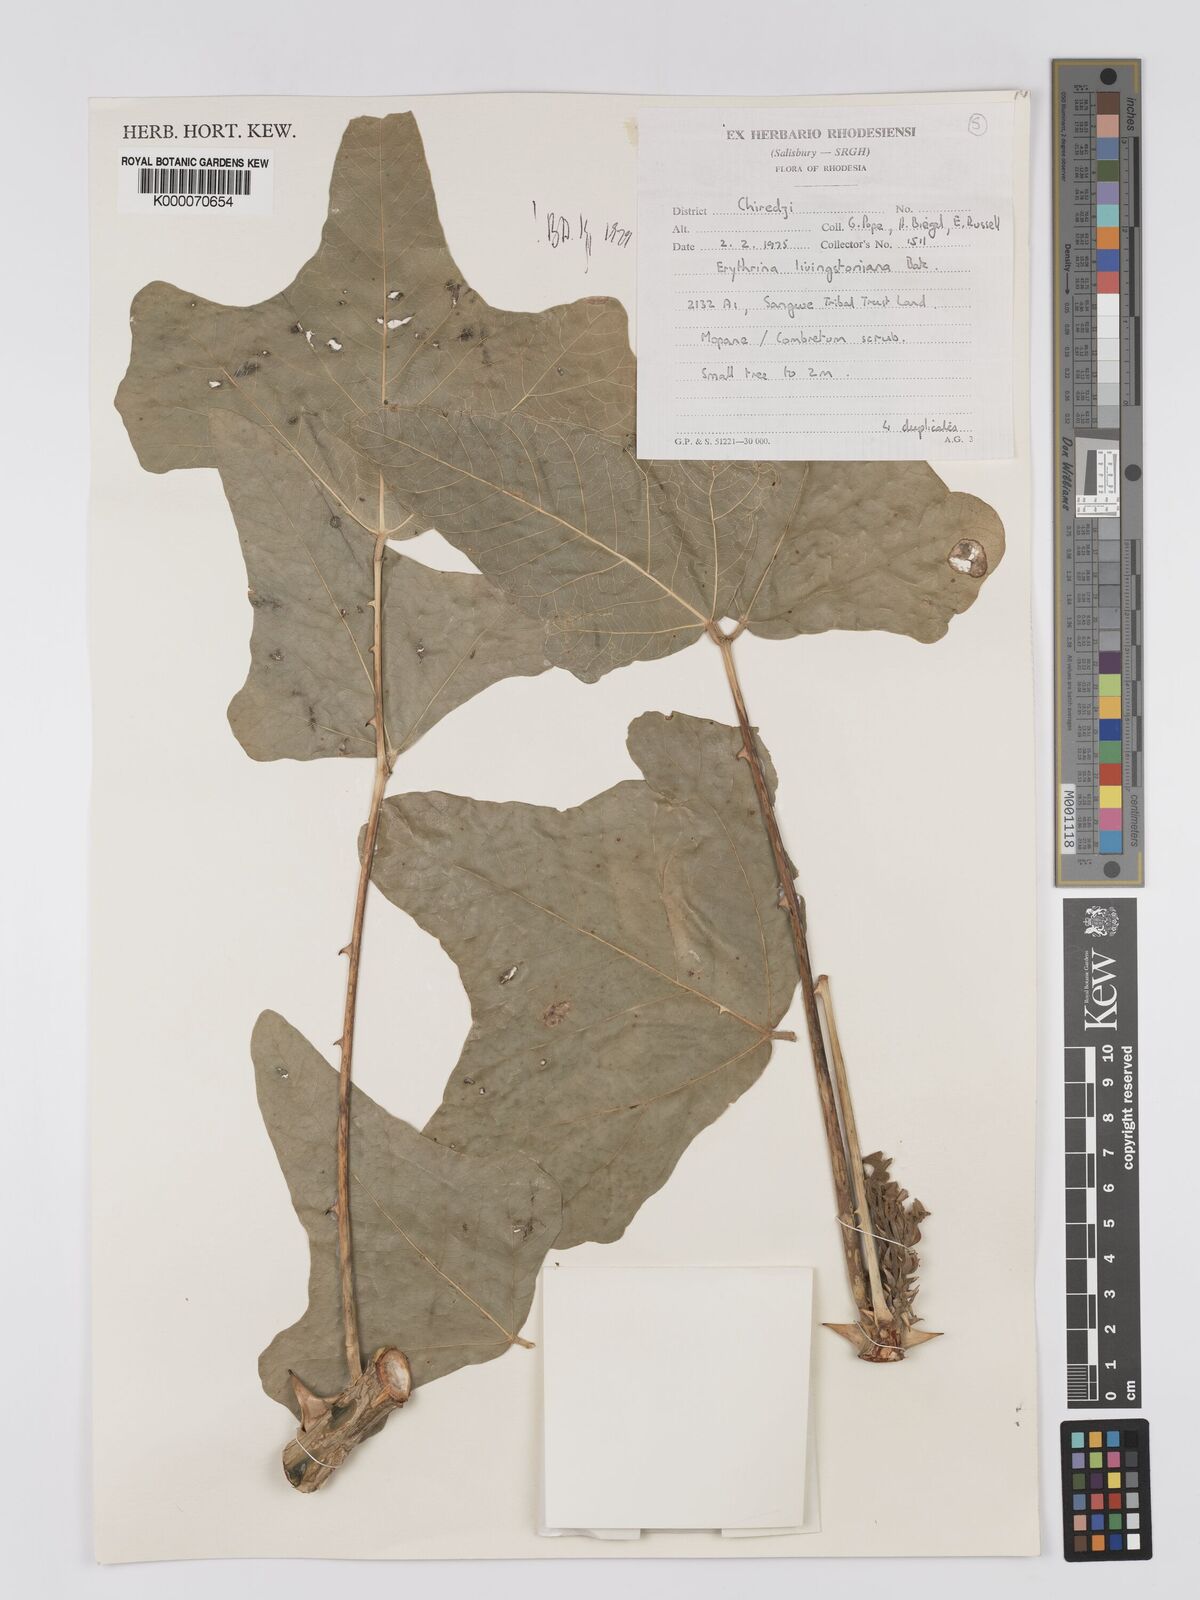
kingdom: Plantae
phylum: Tracheophyta
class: Magnoliopsida
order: Fabales
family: Fabaceae
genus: Erythrina
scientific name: Erythrina
